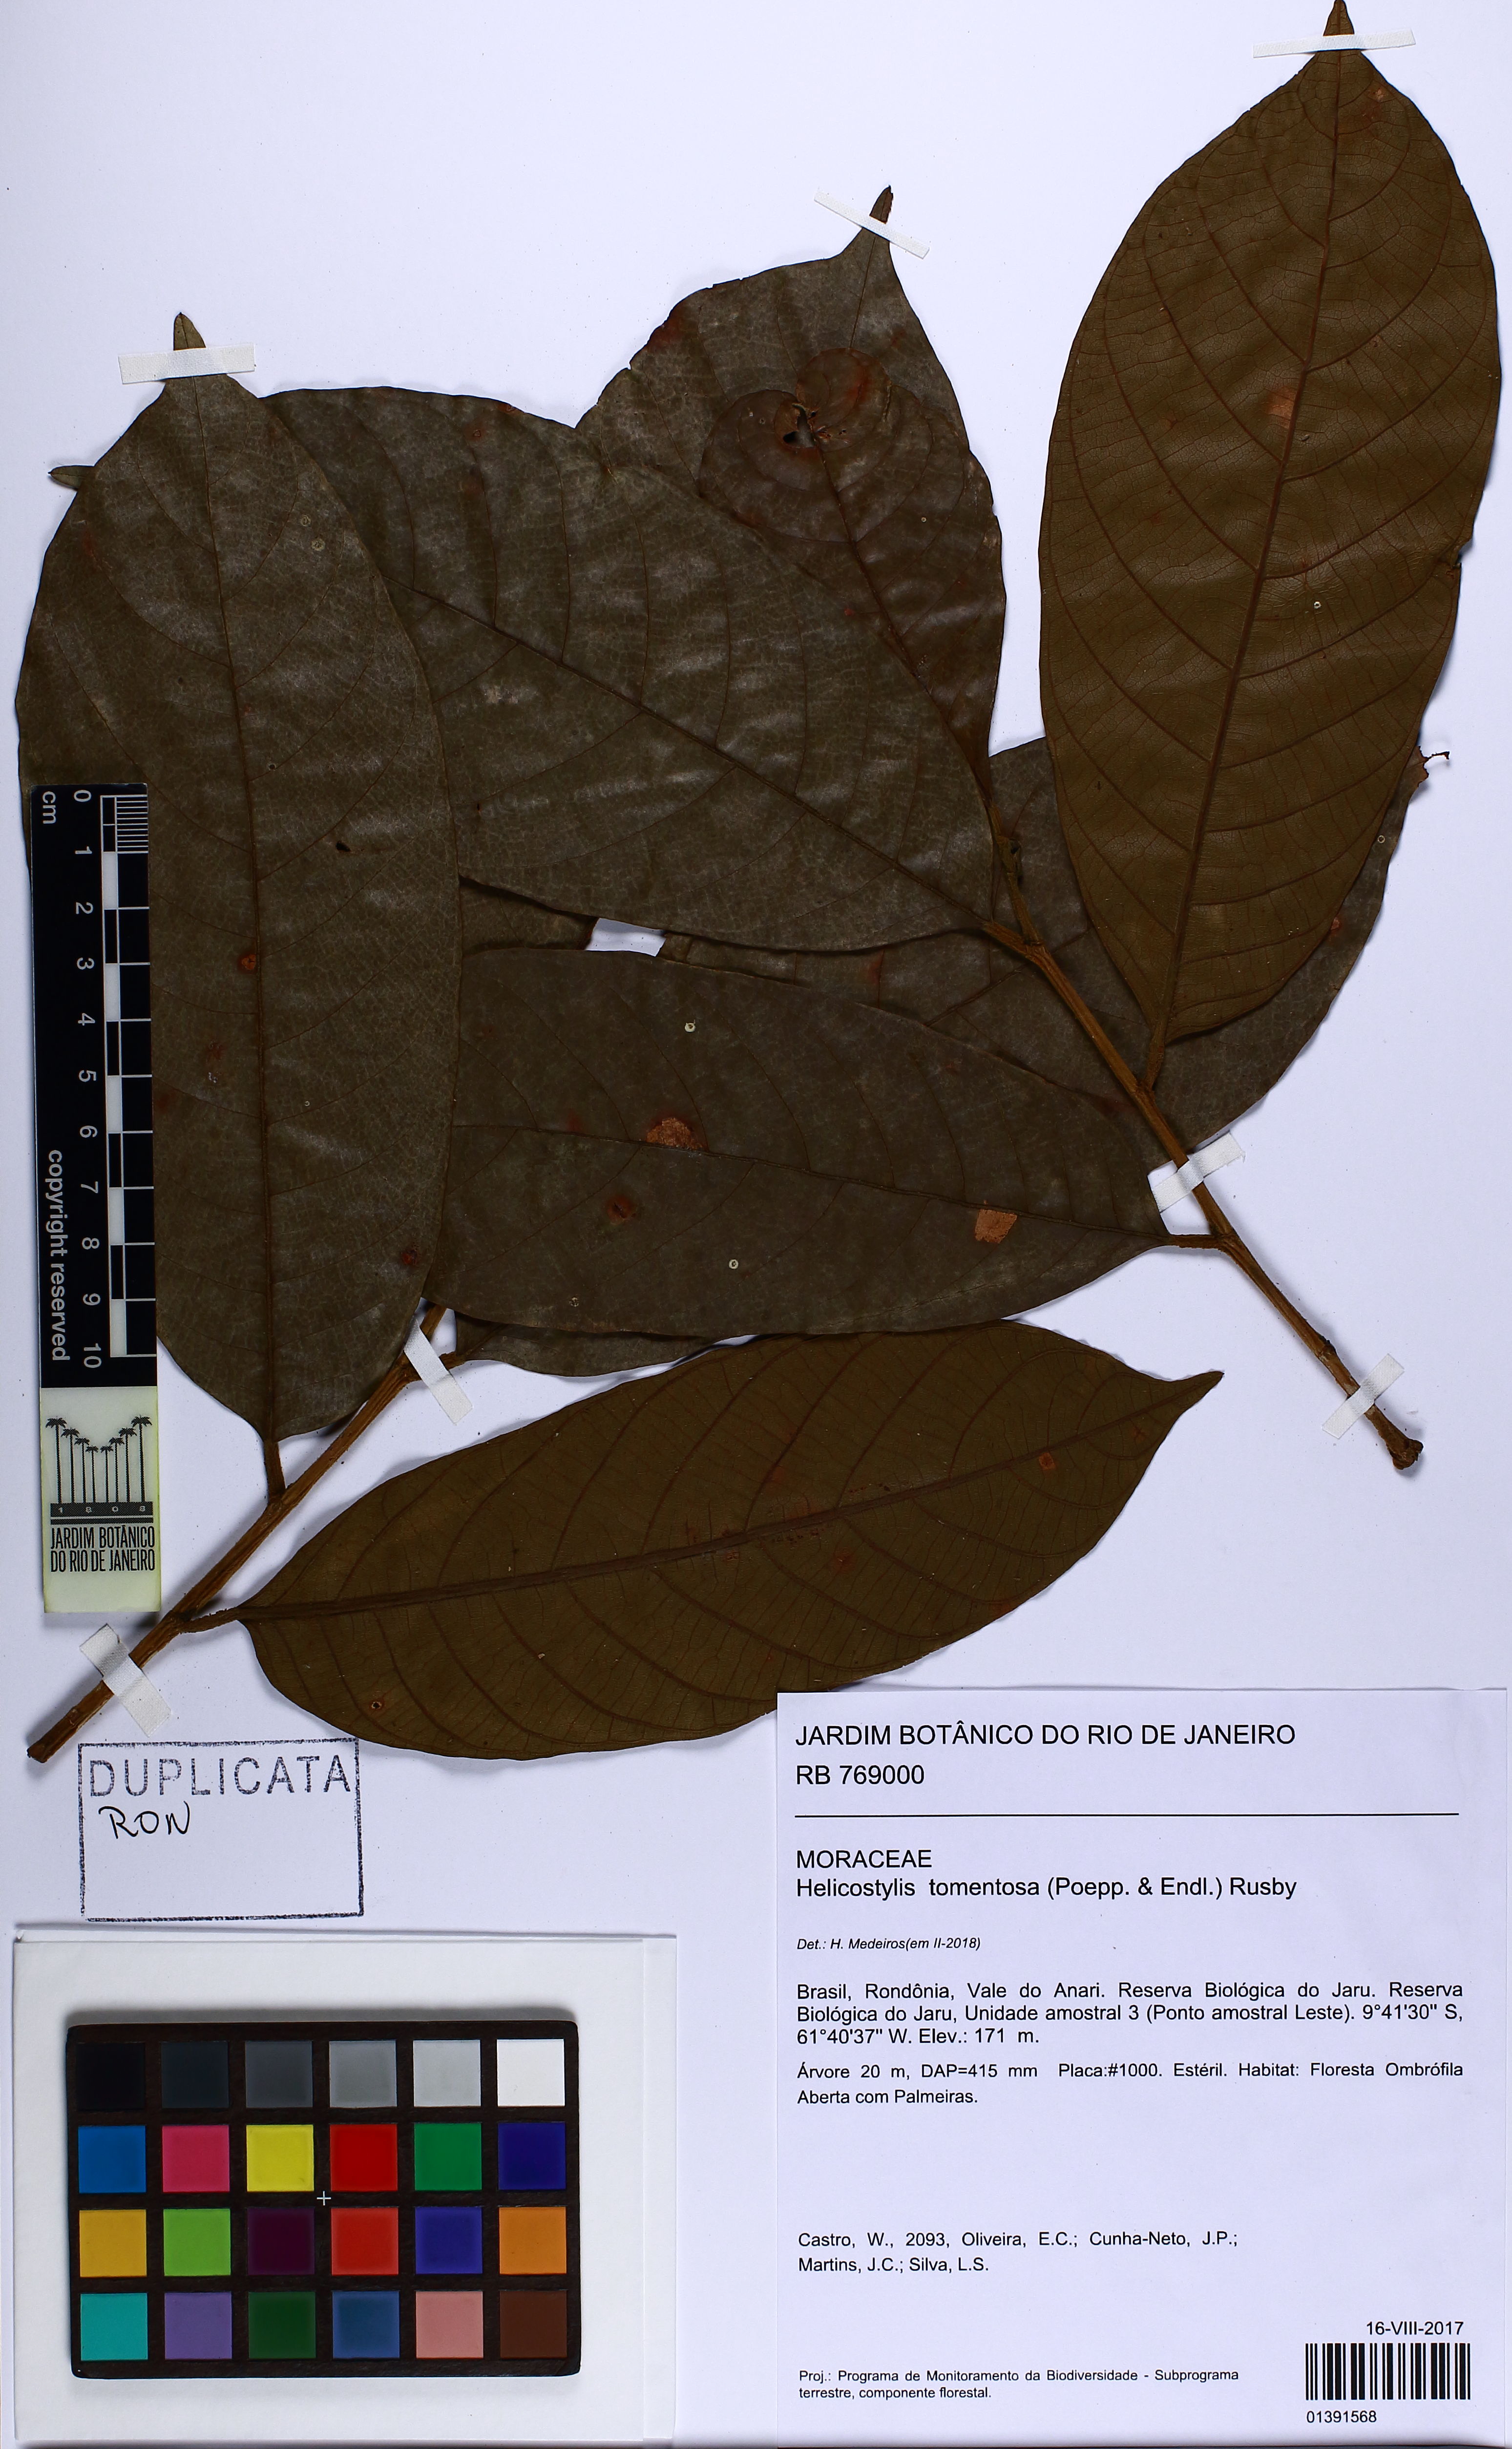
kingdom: Plantae
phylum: Tracheophyta
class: Magnoliopsida
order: Rosales
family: Moraceae
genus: Helicostylis
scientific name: Helicostylis tomentosa
